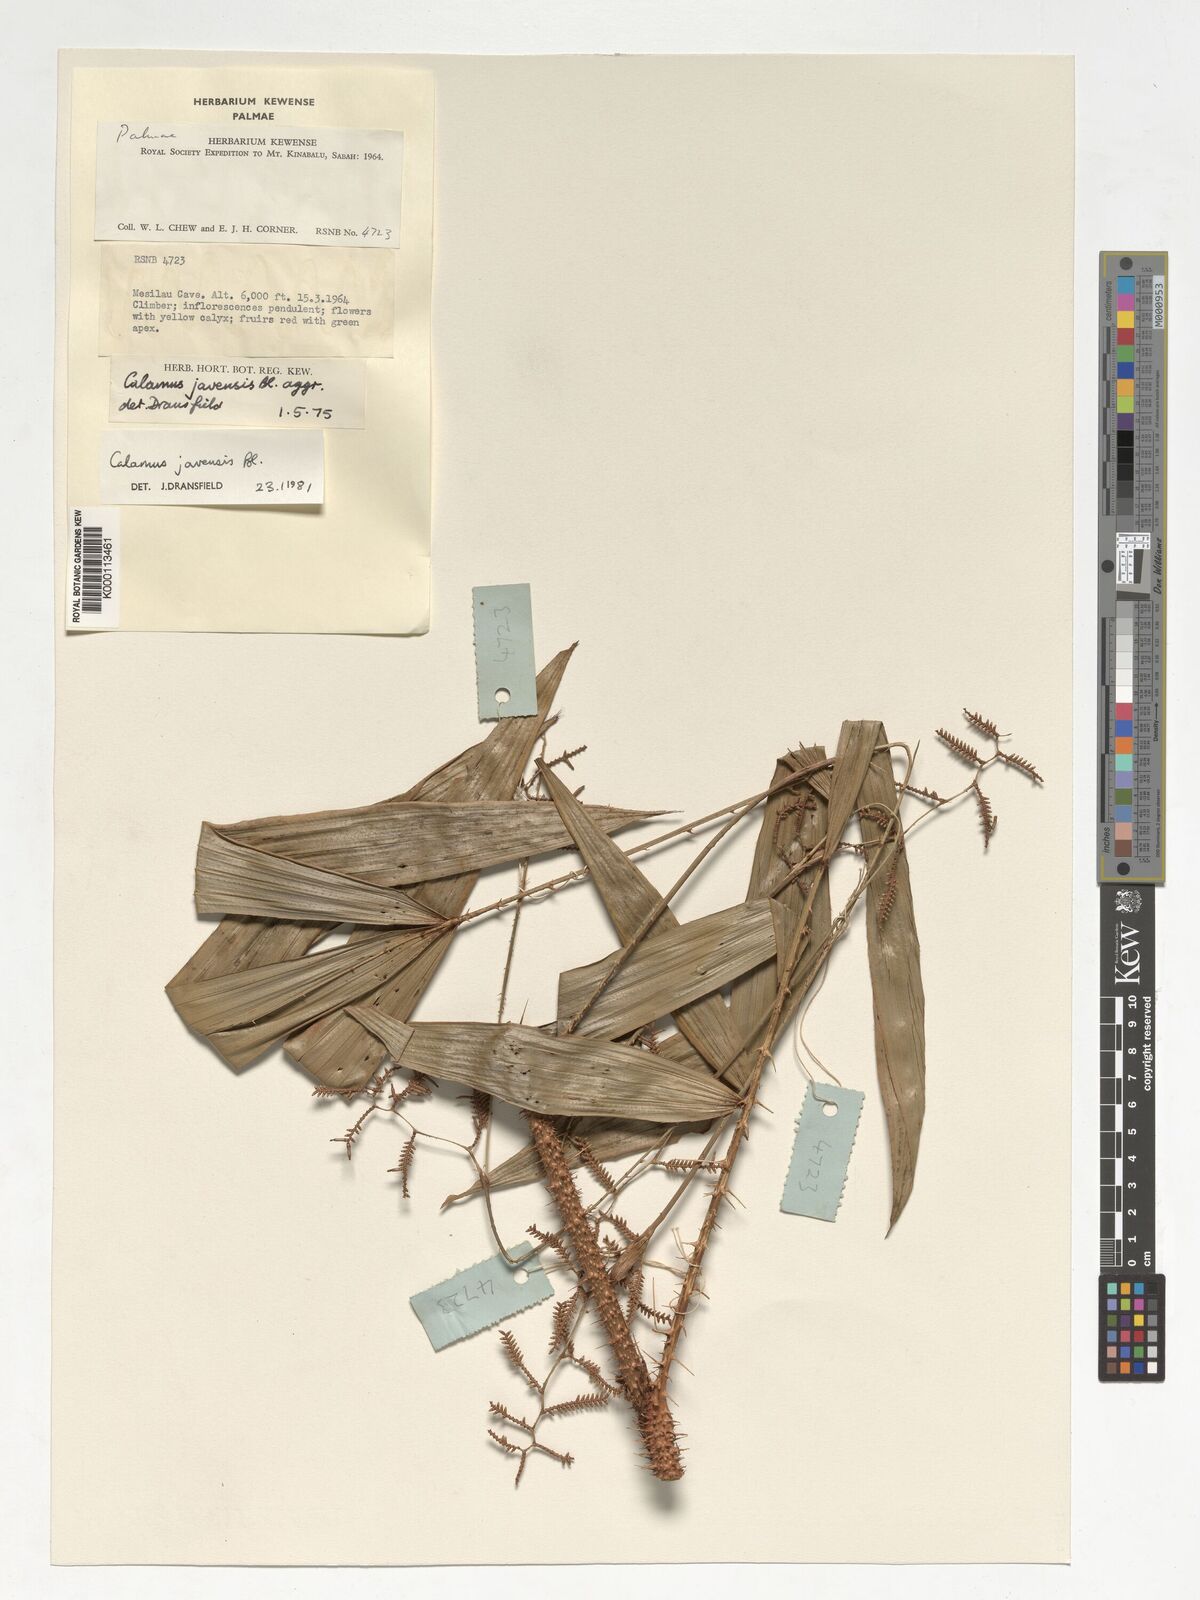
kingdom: Plantae
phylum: Tracheophyta
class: Liliopsida
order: Arecales
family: Arecaceae
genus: Calamus
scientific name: Calamus javensis
